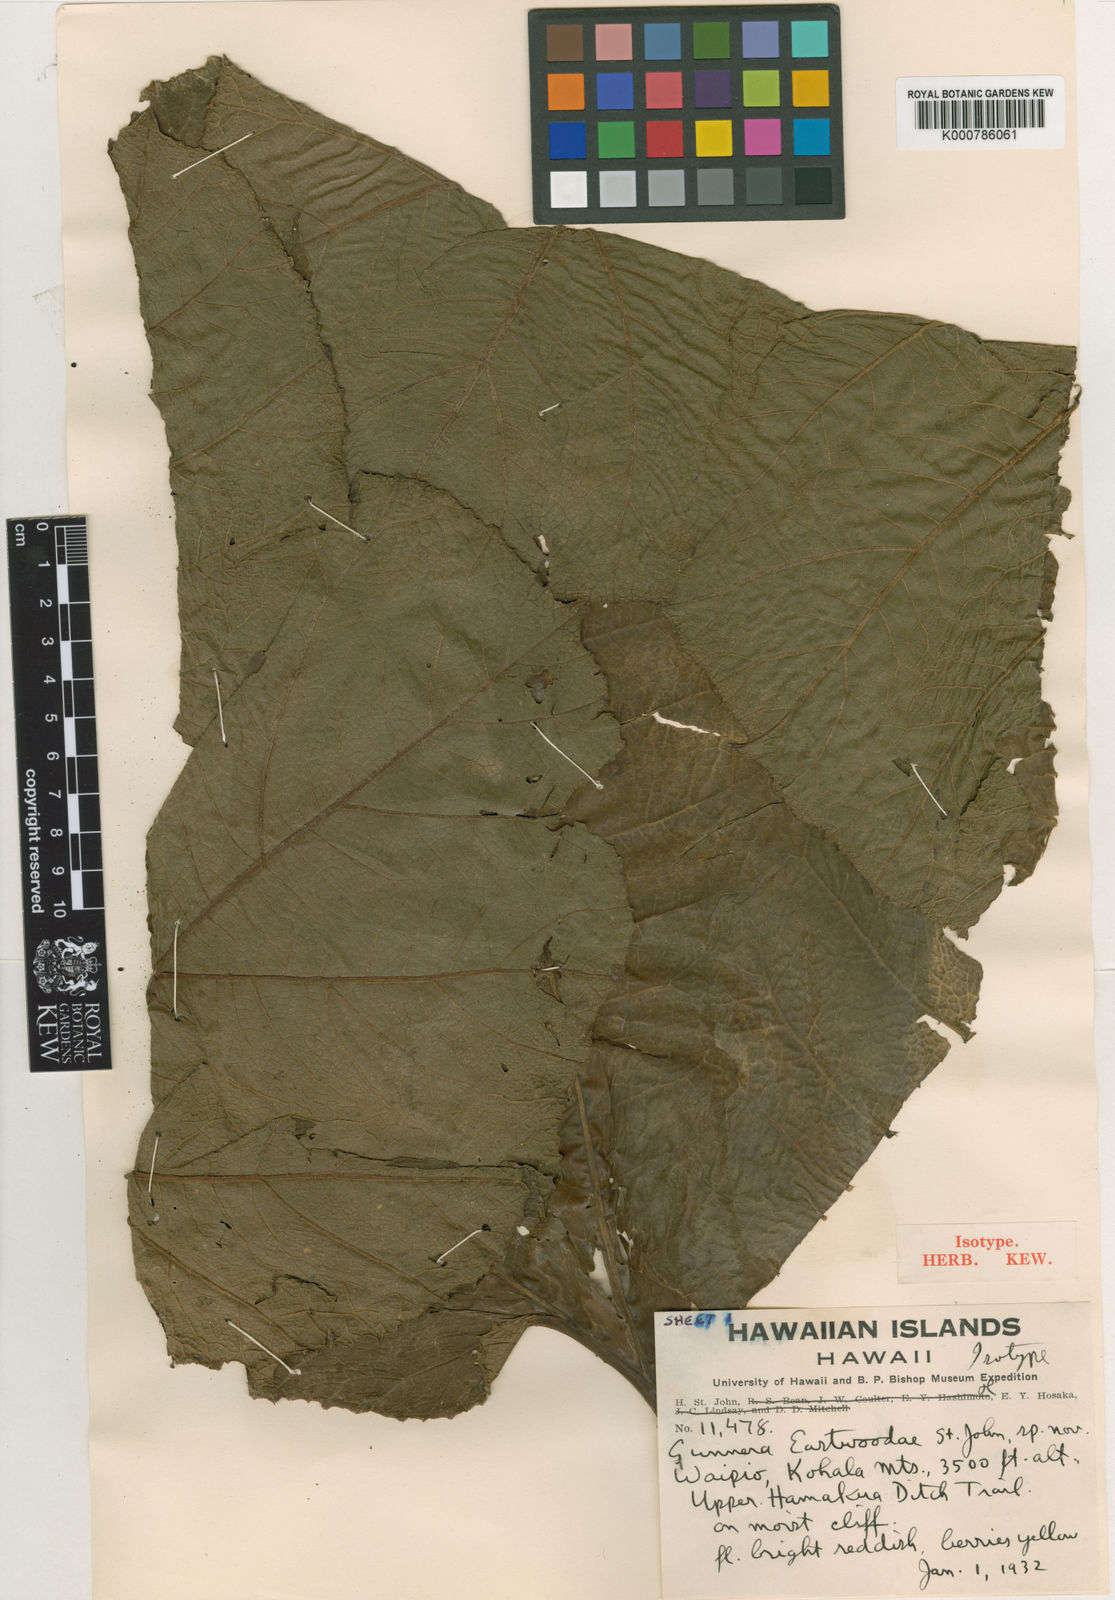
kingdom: Plantae
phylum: Tracheophyta
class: Magnoliopsida
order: Gunnerales
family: Gunneraceae
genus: Gunnera
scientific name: Gunnera petaloidea
